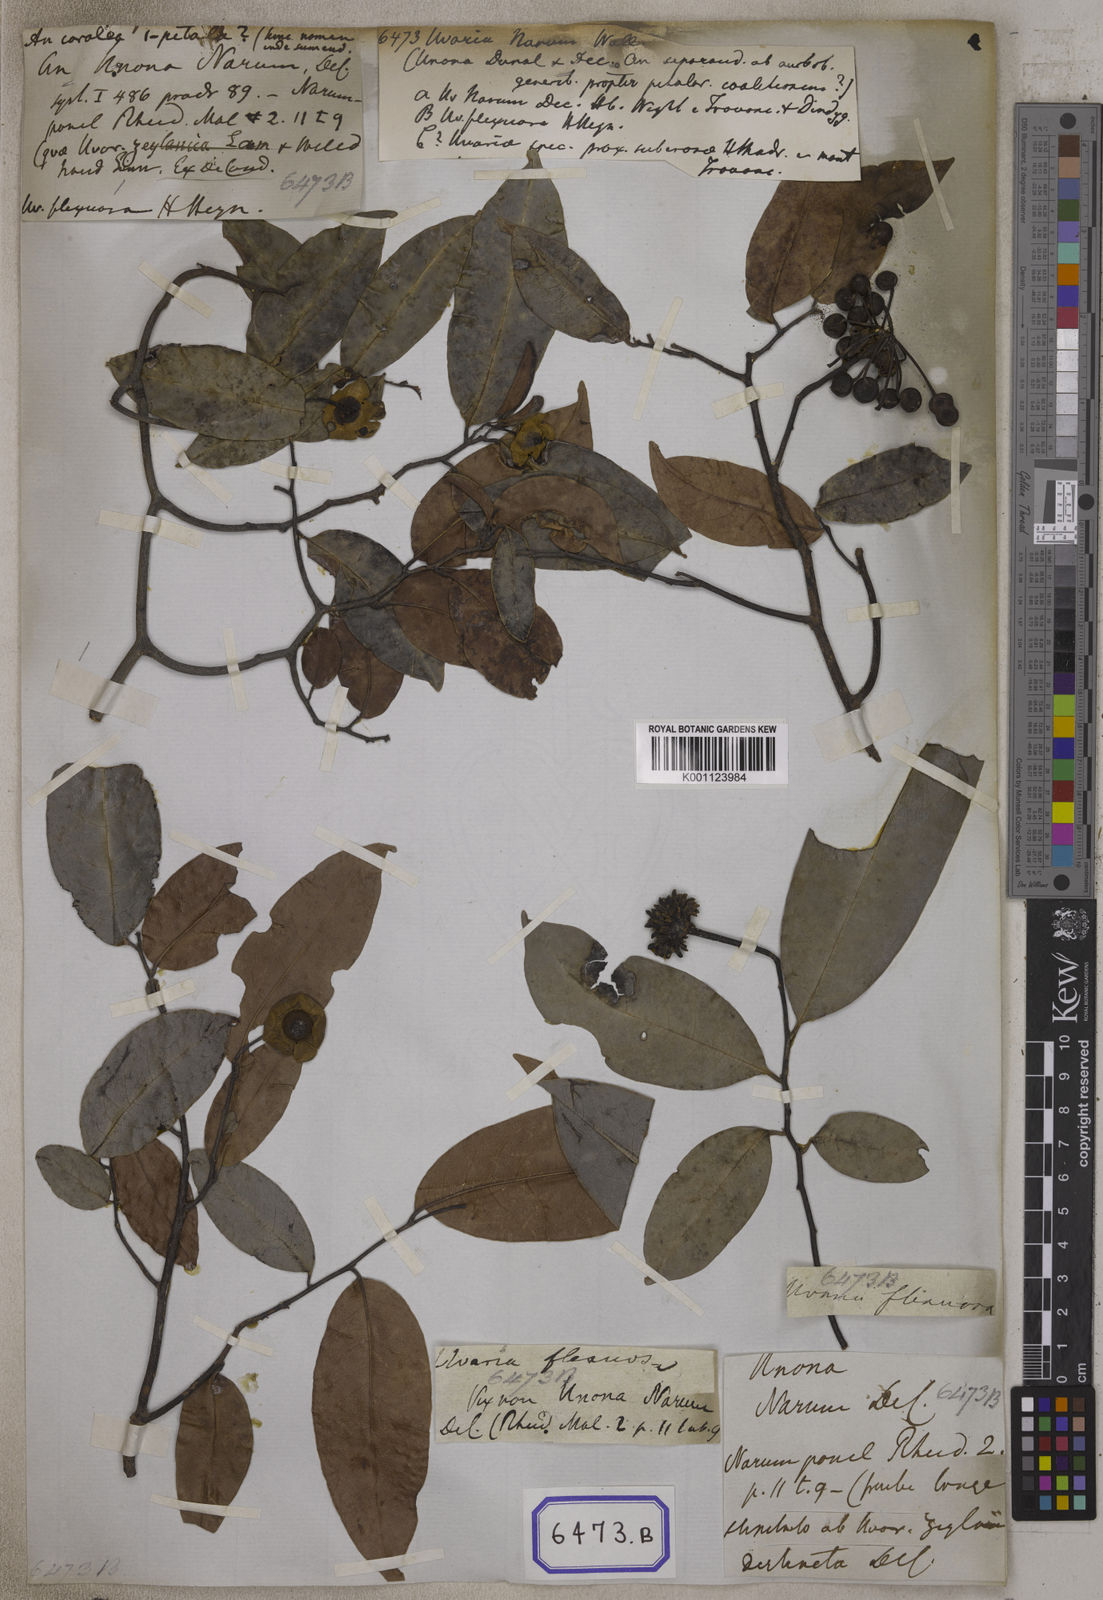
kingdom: Plantae
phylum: Tracheophyta
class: Magnoliopsida
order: Magnoliales
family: Annonaceae
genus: Uvaria
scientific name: Uvaria
